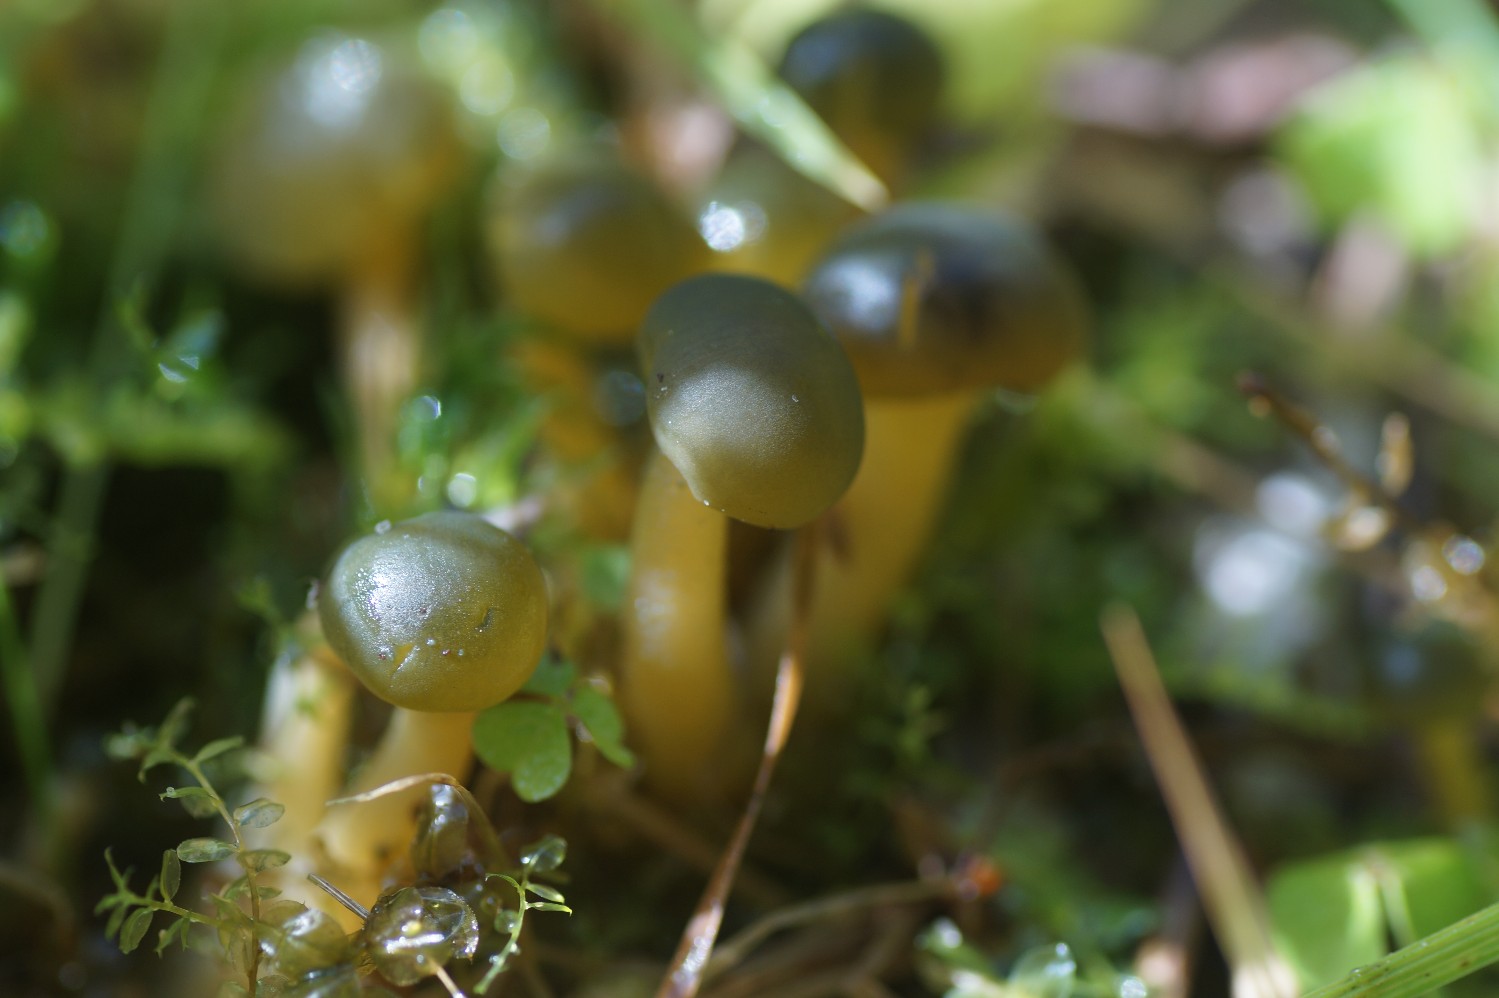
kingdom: Fungi
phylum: Ascomycota
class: Leotiomycetes
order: Leotiales
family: Leotiaceae
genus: Leotia
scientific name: Leotia lubrica
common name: ravsvamp
